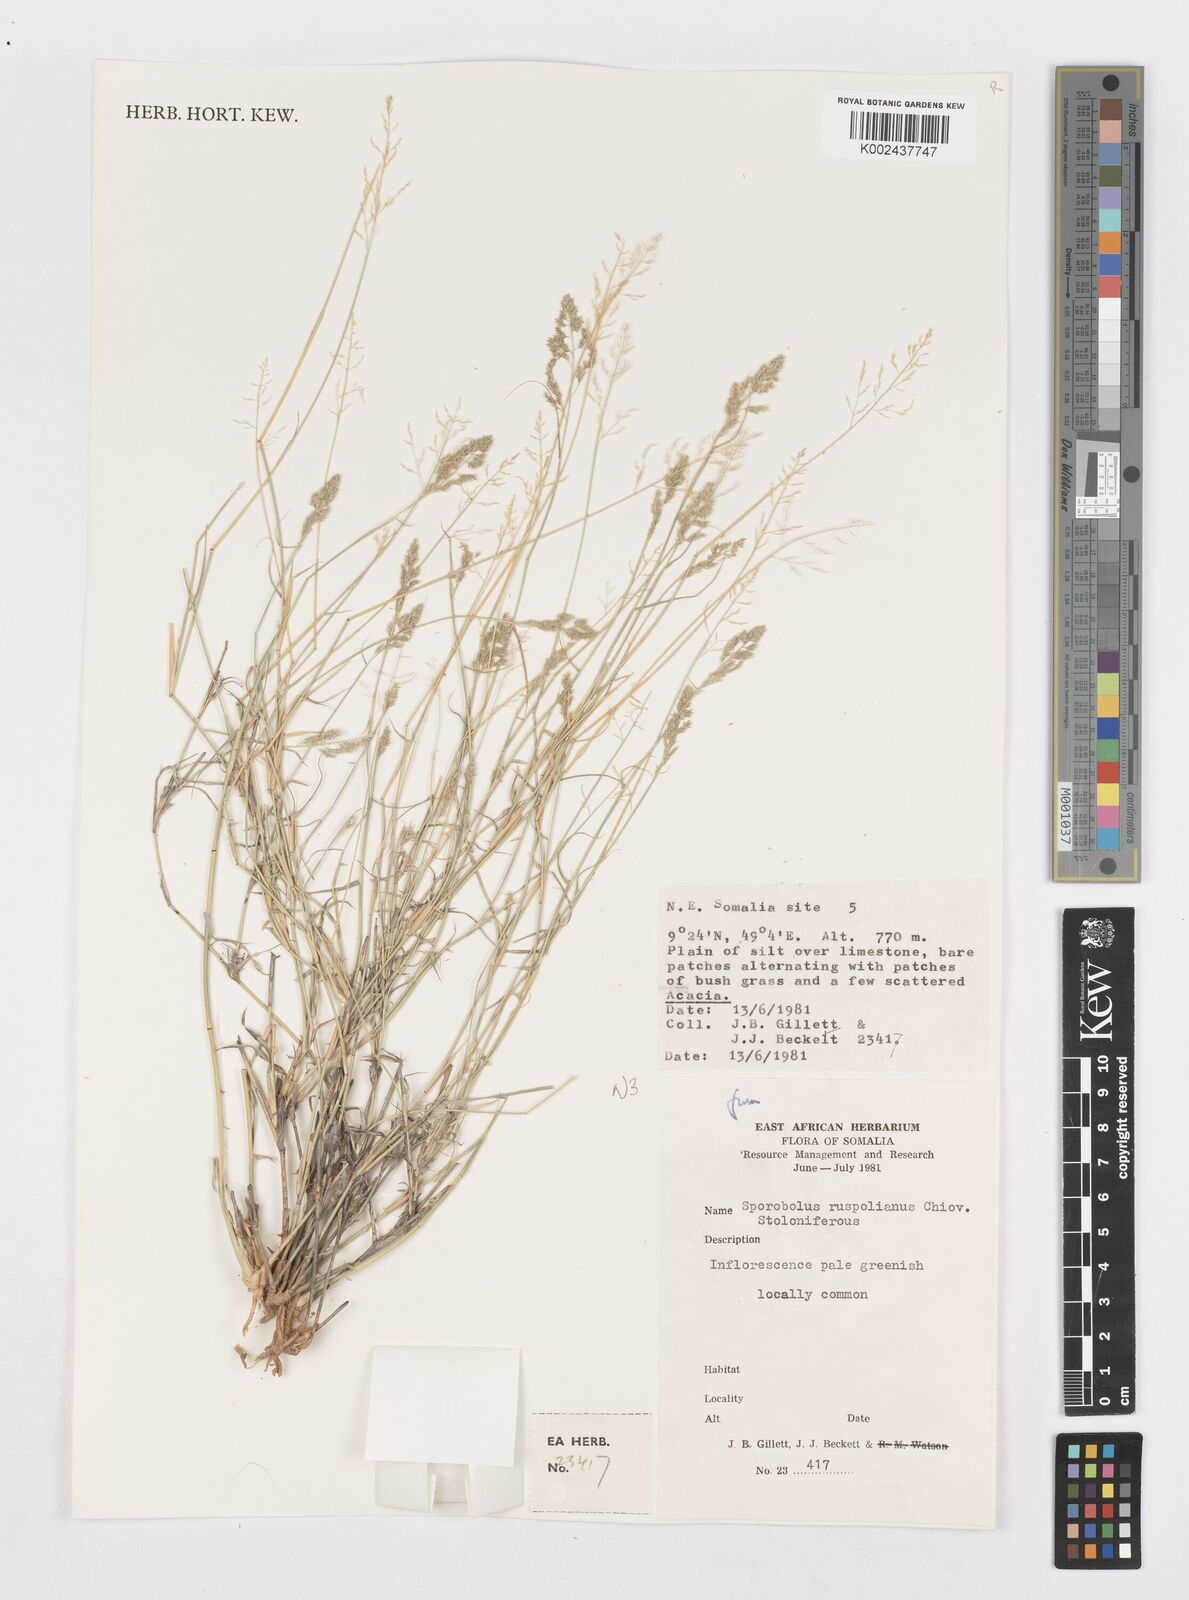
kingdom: Plantae
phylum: Tracheophyta
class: Liliopsida
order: Poales
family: Poaceae
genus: Sporobolus
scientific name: Sporobolus ruspolianus
